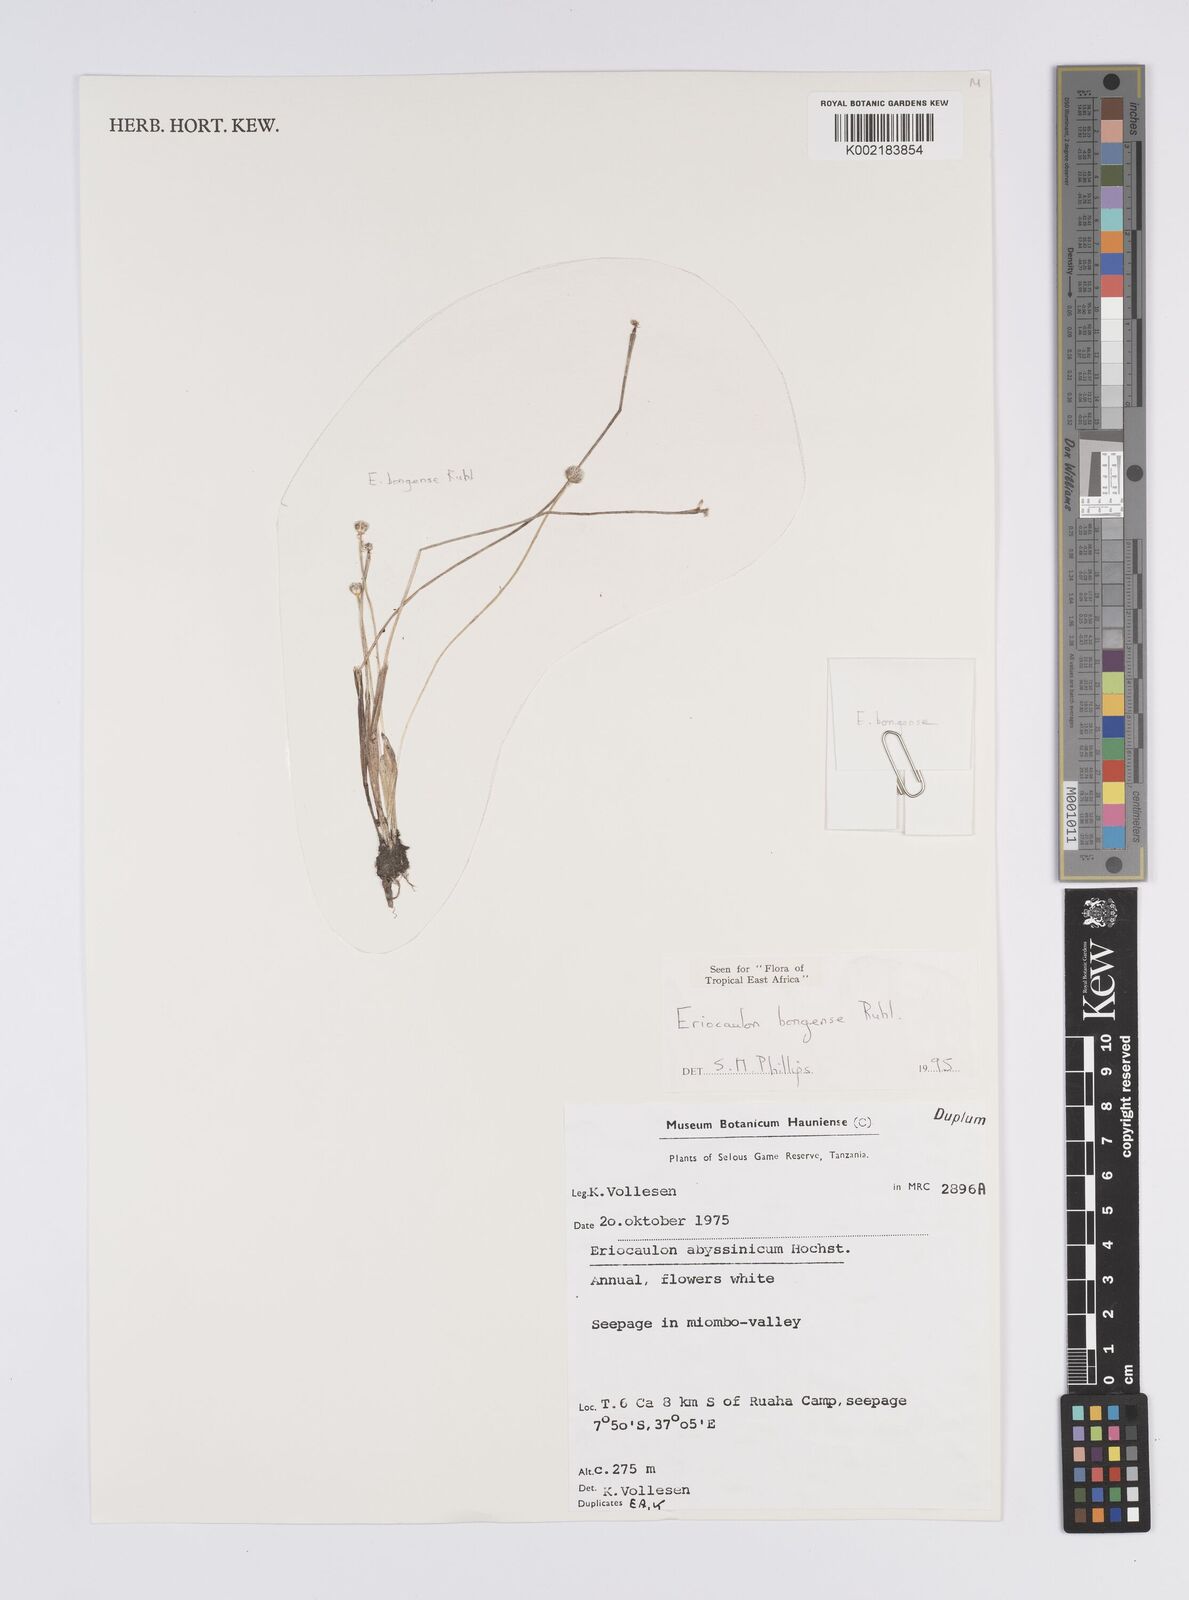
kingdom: Plantae
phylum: Tracheophyta
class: Liliopsida
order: Poales
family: Eriocaulaceae
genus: Eriocaulon
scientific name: Eriocaulon bongense
